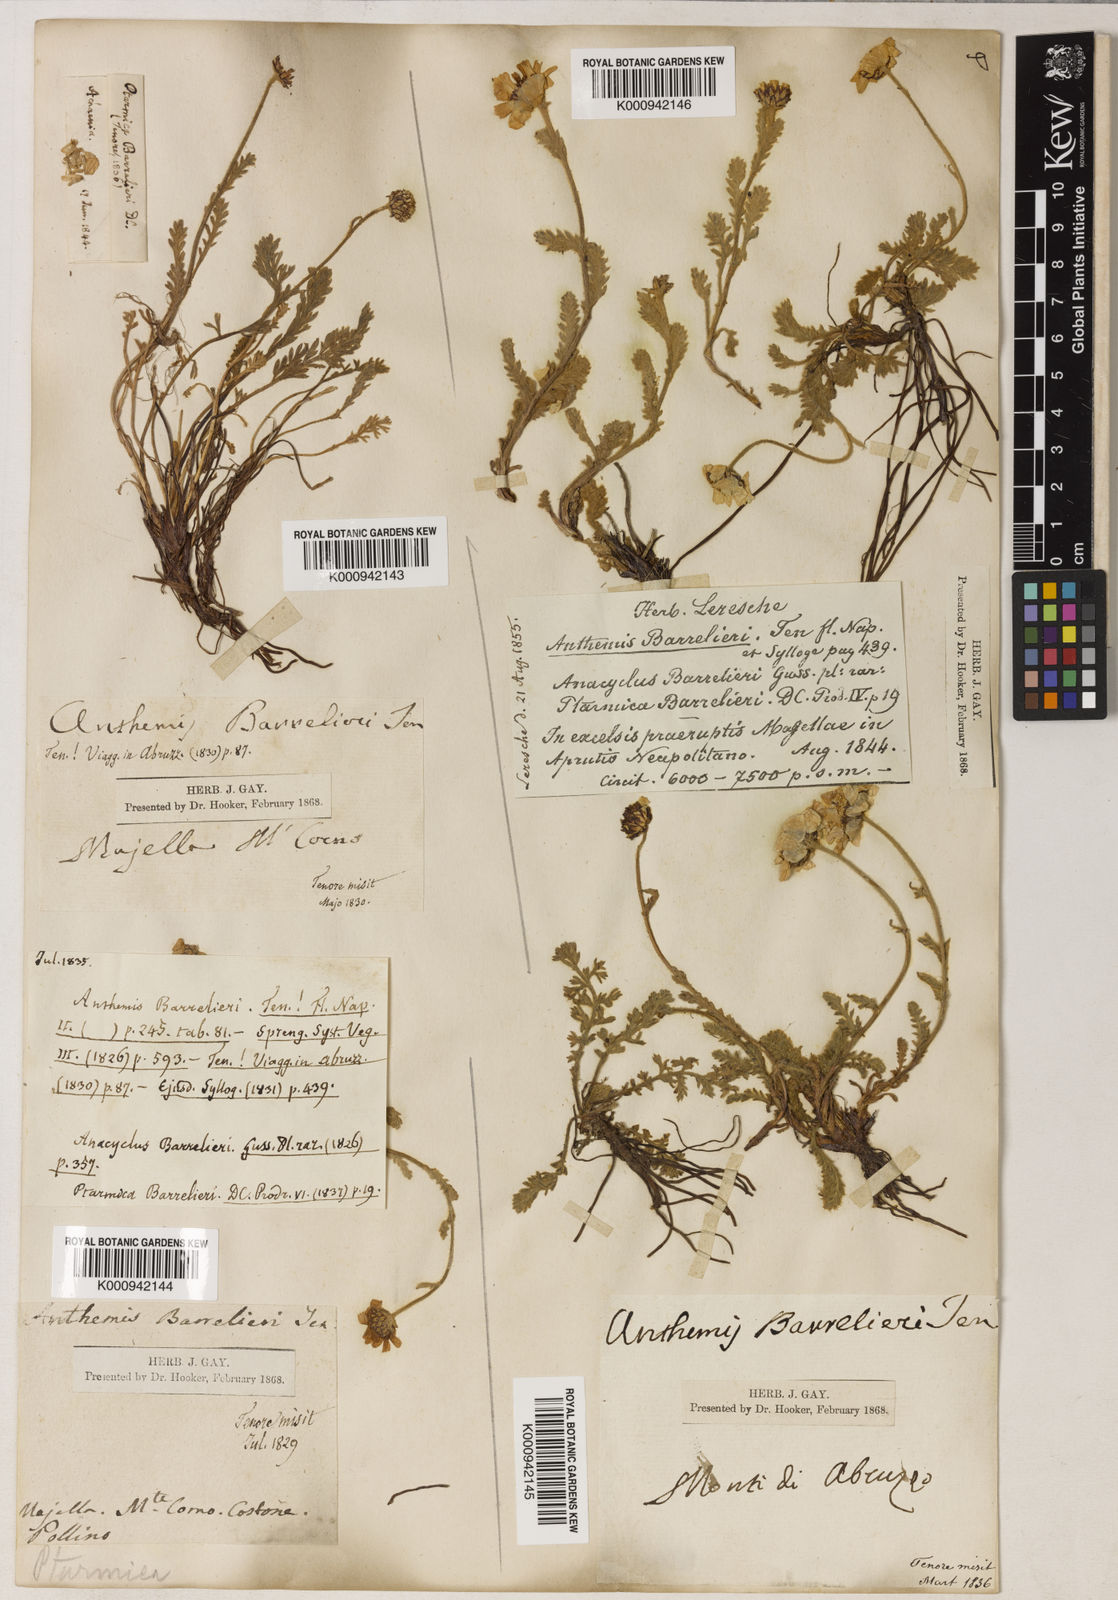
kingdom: Plantae
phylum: Tracheophyta
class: Magnoliopsida
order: Asterales
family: Asteraceae
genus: Achillea
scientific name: Achillea barrelieri
